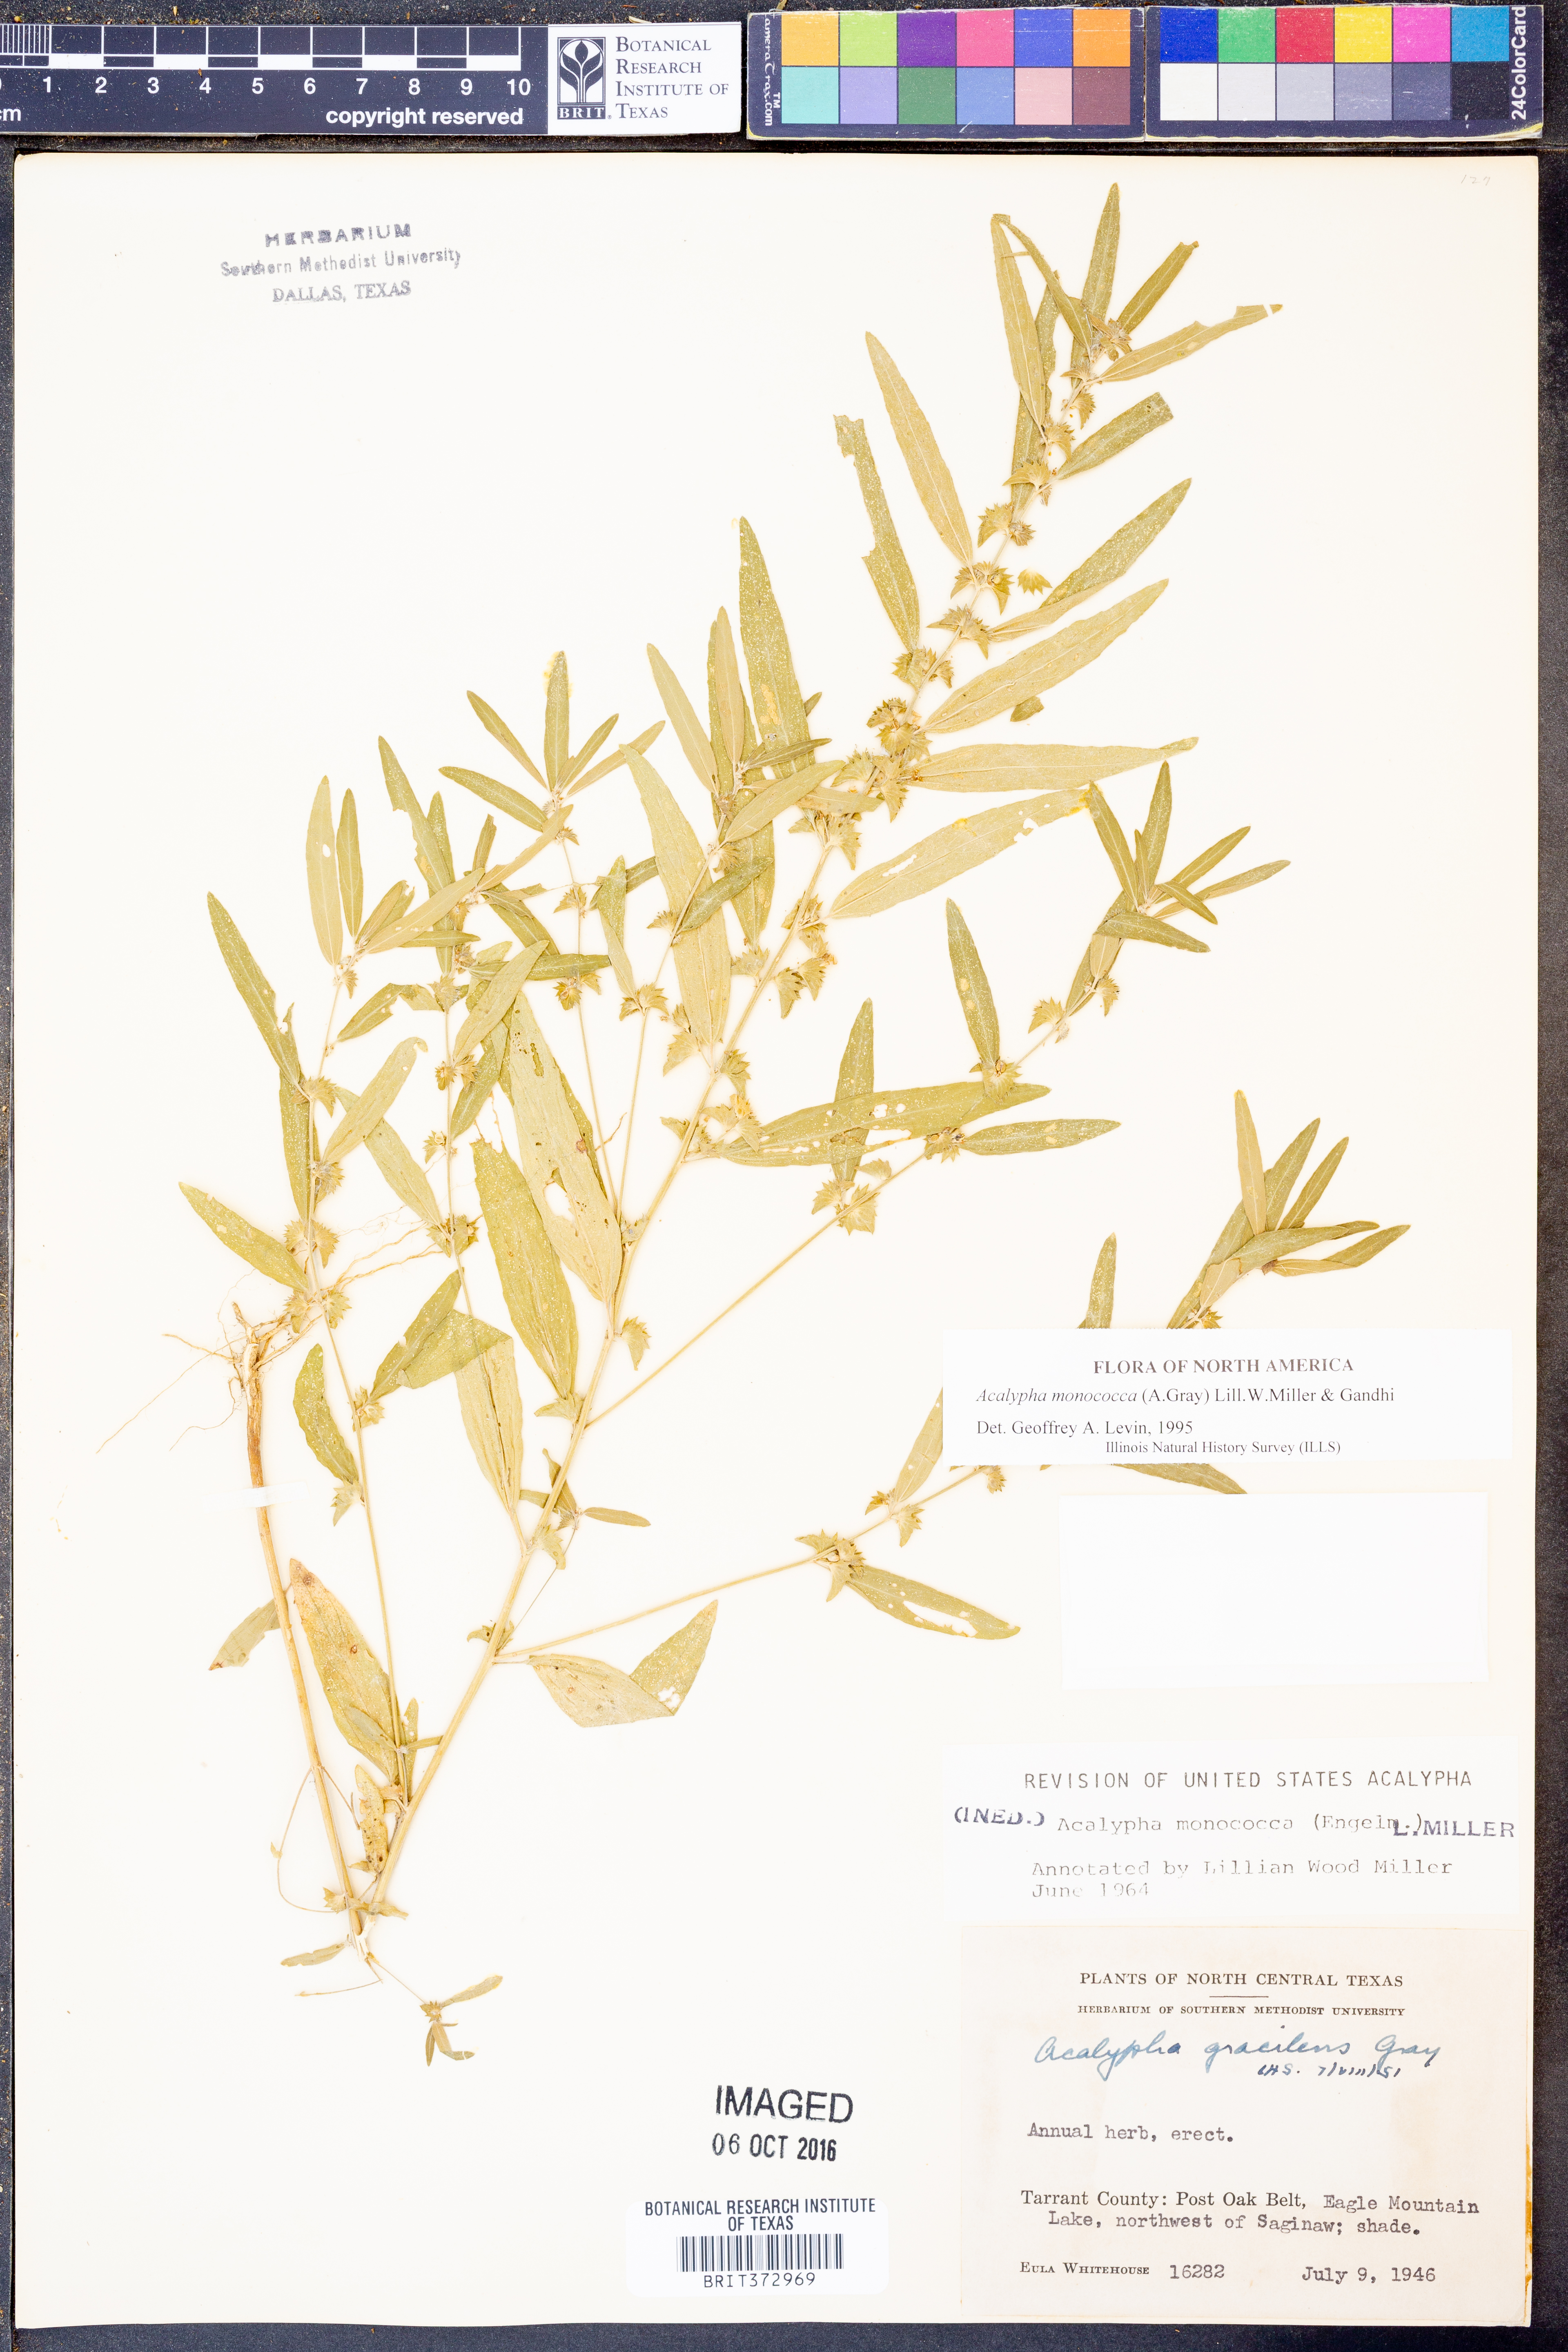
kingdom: Plantae
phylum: Tracheophyta
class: Magnoliopsida
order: Malpighiales
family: Euphorbiaceae
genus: Acalypha
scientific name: Acalypha monococca
